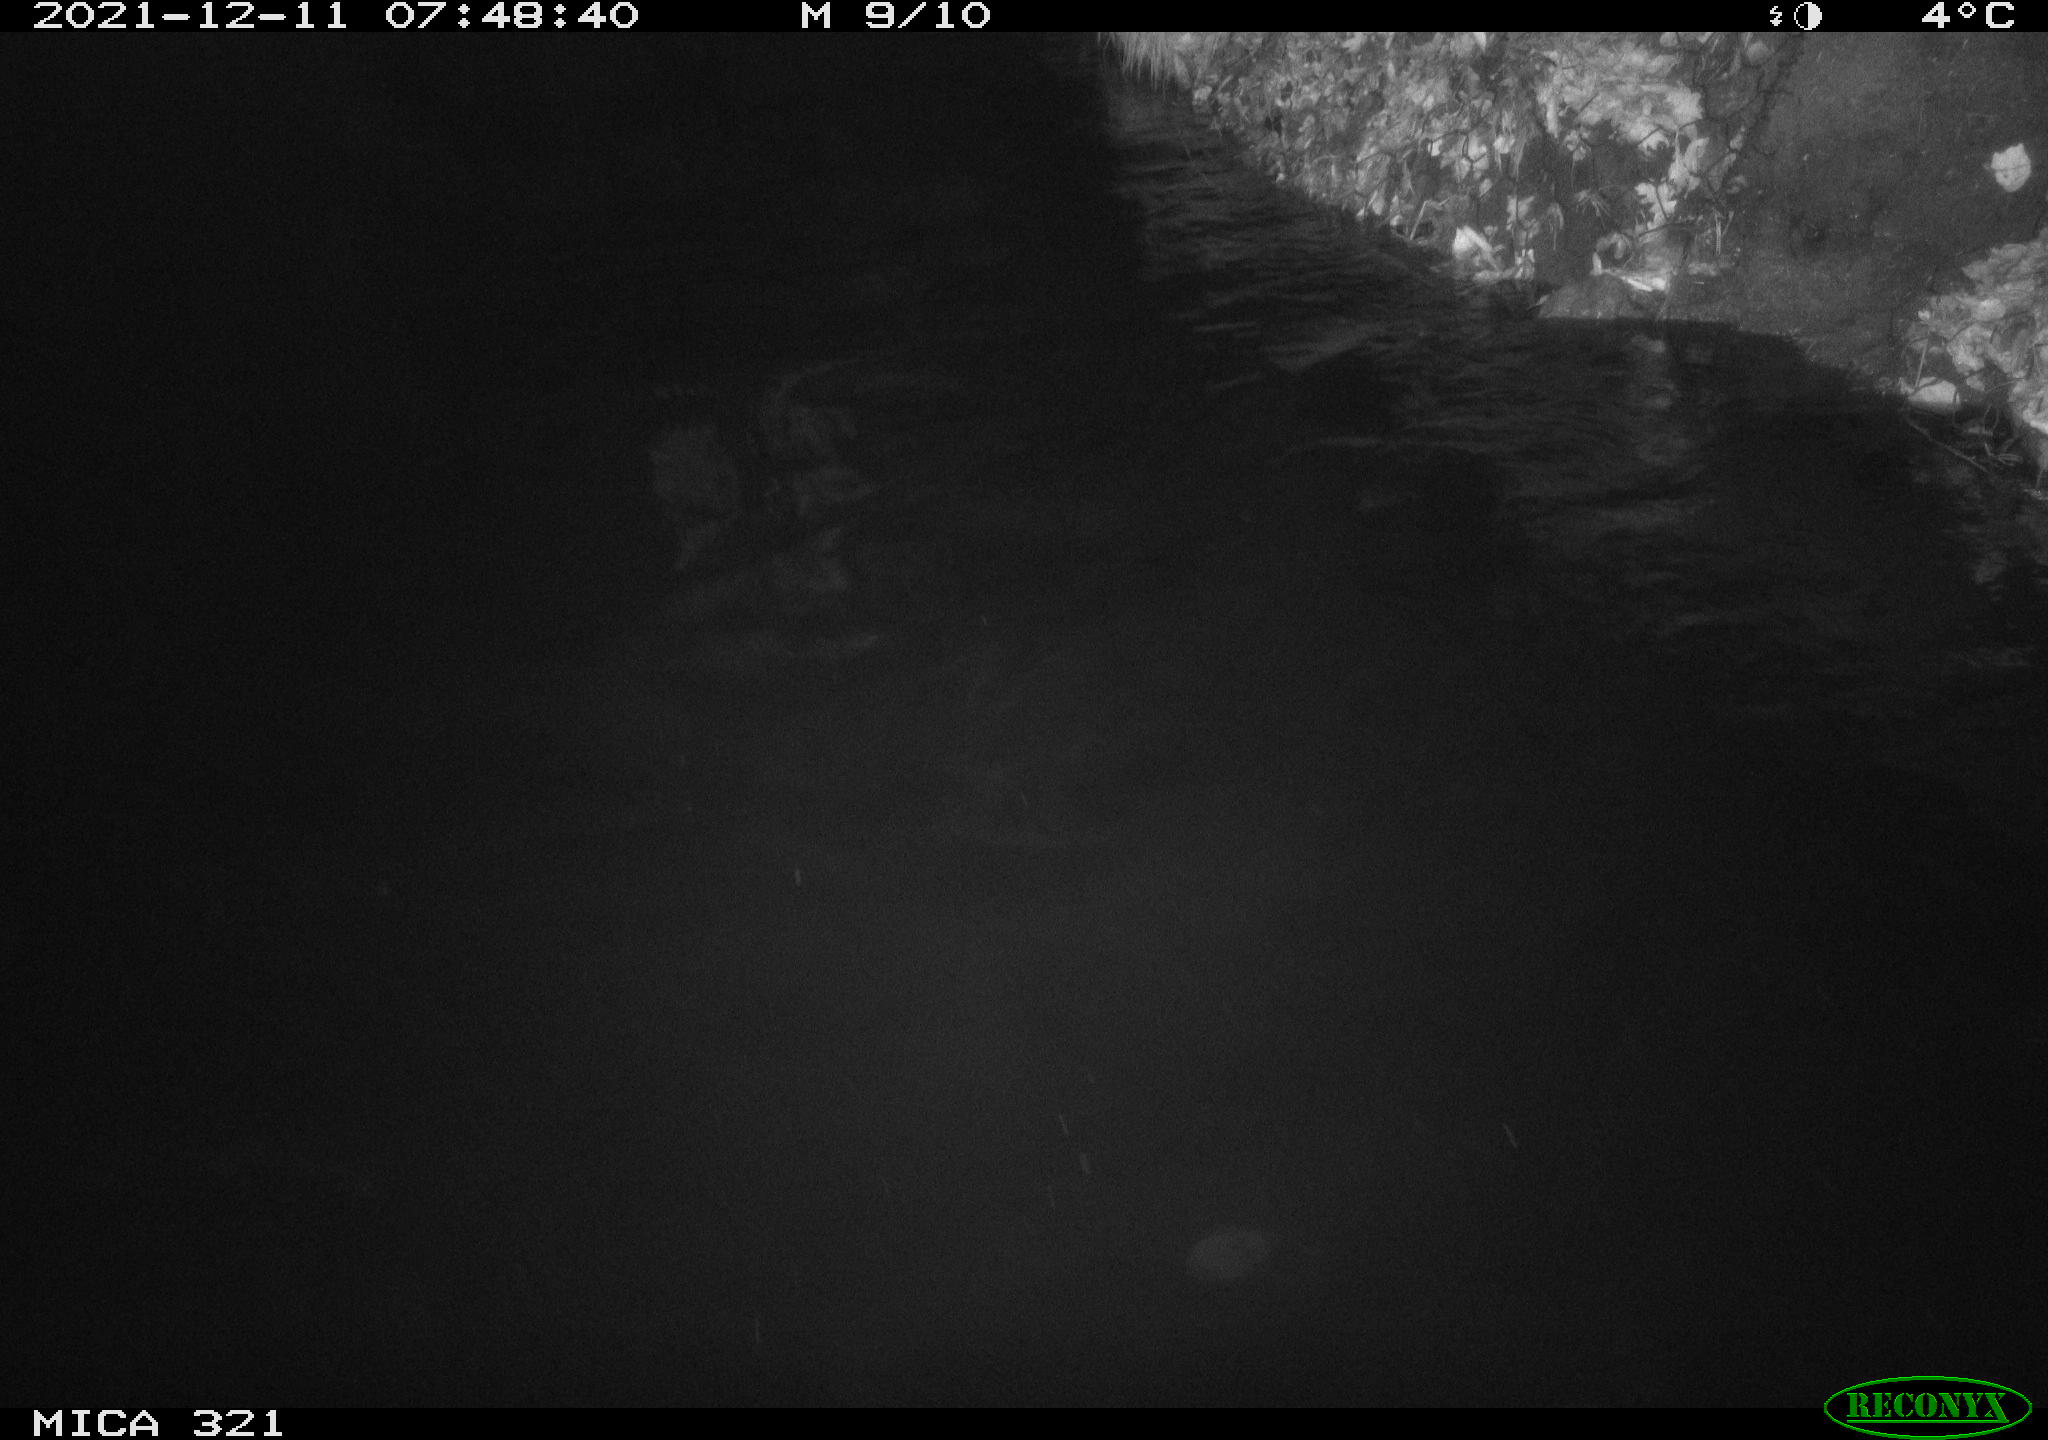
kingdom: Animalia
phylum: Chordata
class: Aves
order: Anseriformes
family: Anatidae
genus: Anas
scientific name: Anas platyrhynchos
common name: Mallard
